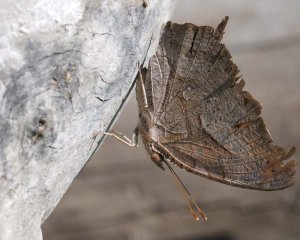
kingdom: Animalia
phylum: Arthropoda
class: Insecta
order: Lepidoptera
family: Nymphalidae
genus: Polygonia
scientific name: Polygonia interrogationis
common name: Question Mark
